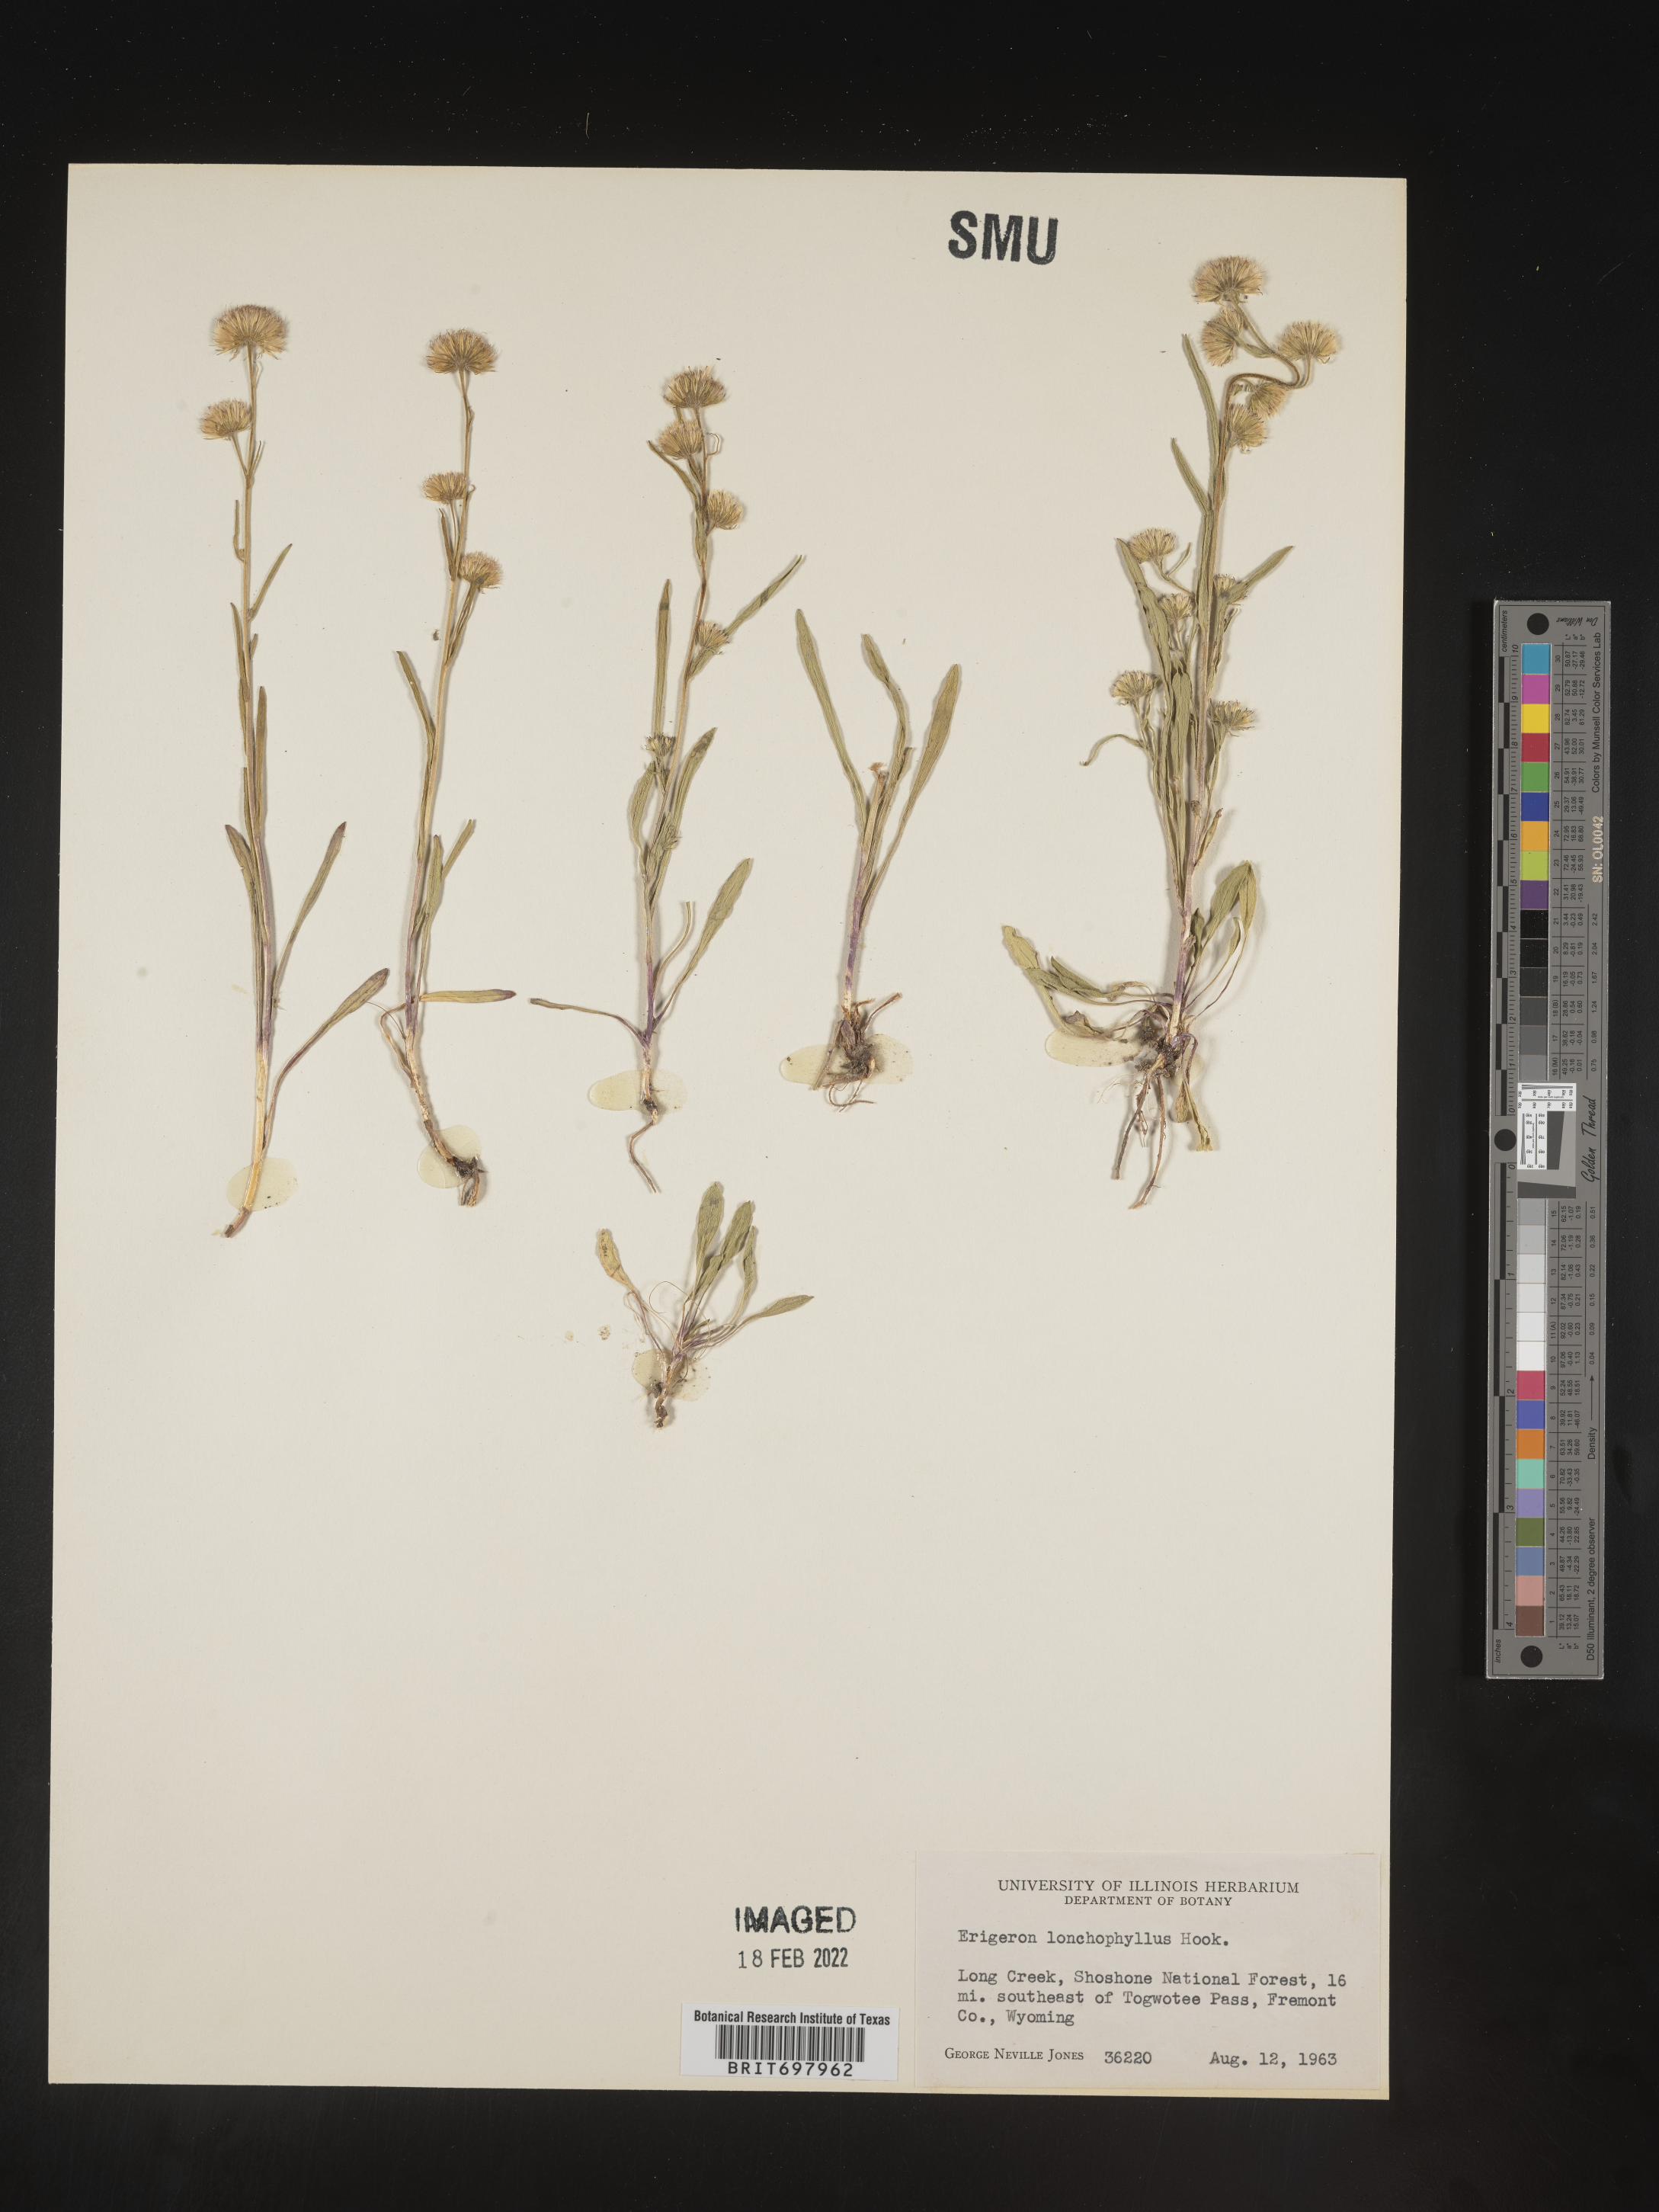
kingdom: Plantae
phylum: Tracheophyta
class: Magnoliopsida
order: Asterales
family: Asteraceae
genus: Erigeron
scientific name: Erigeron lonchophyllus
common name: Short-ray fleabane
